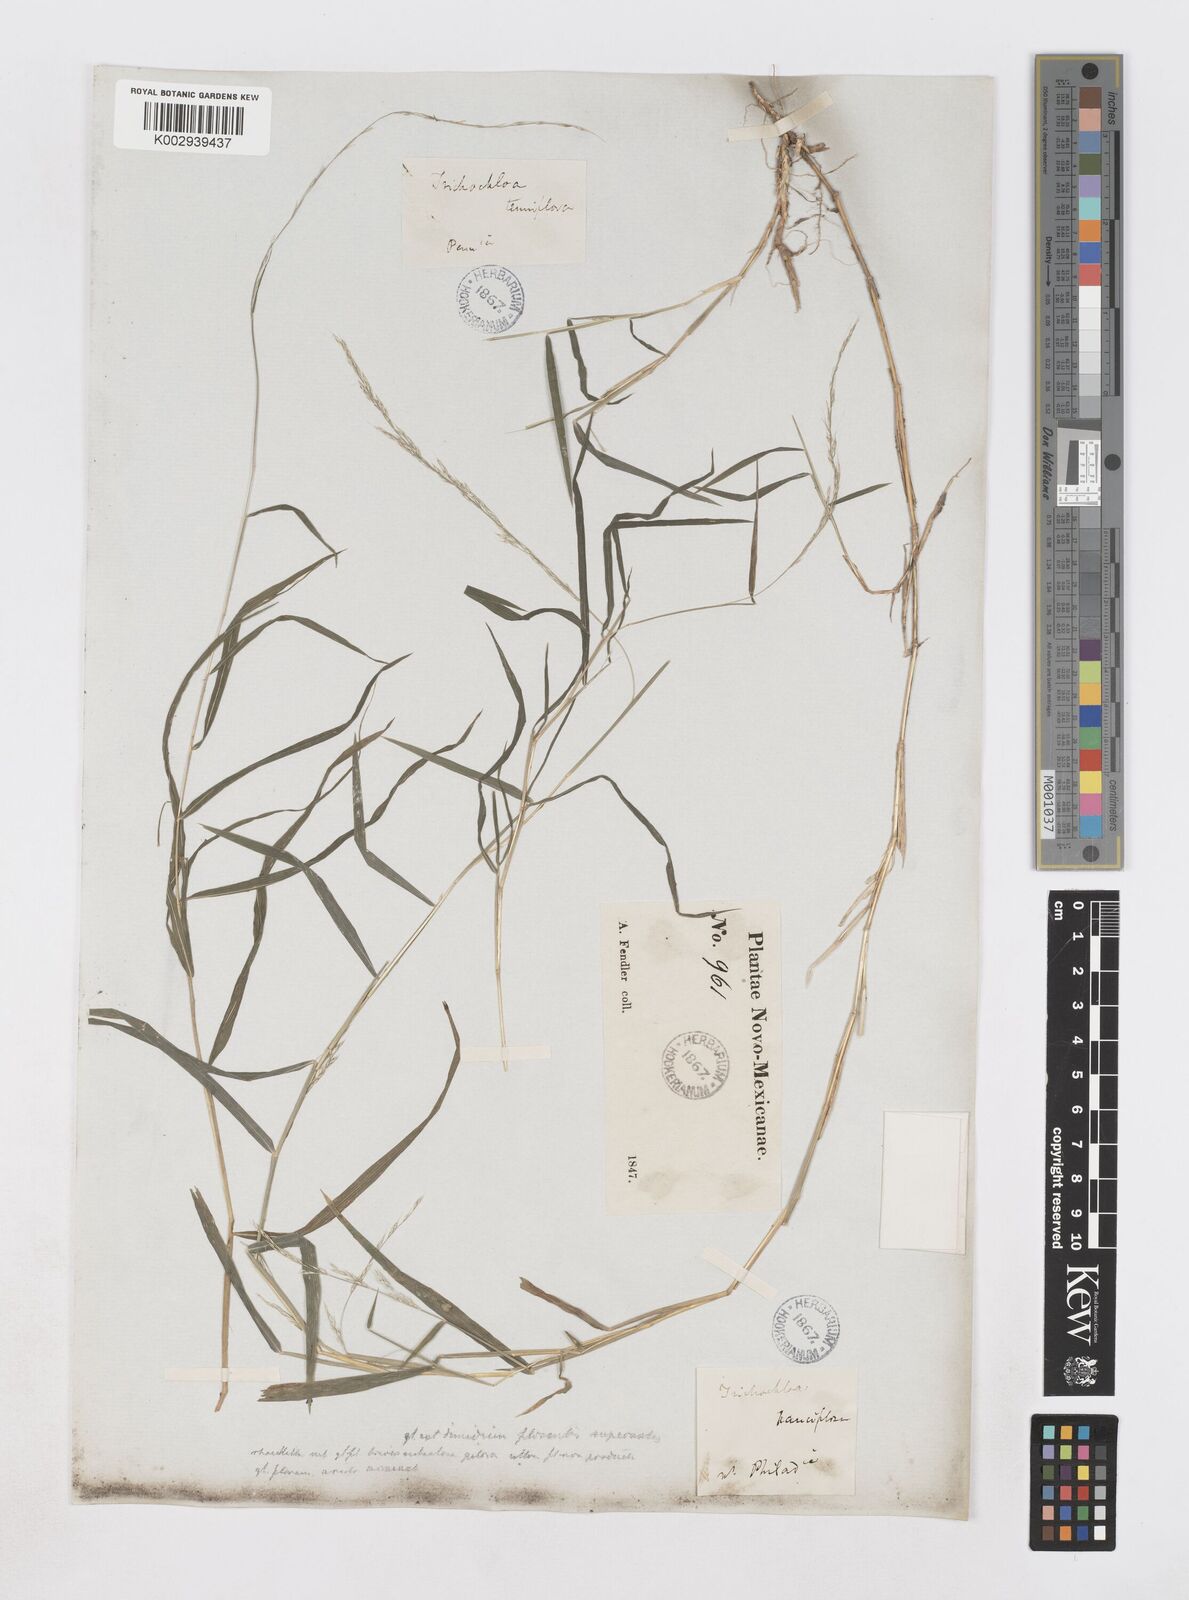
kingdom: Plantae
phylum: Tracheophyta
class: Liliopsida
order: Poales
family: Poaceae
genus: Muhlenbergia
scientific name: Muhlenbergia sobolifera
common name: Creeping muhly
